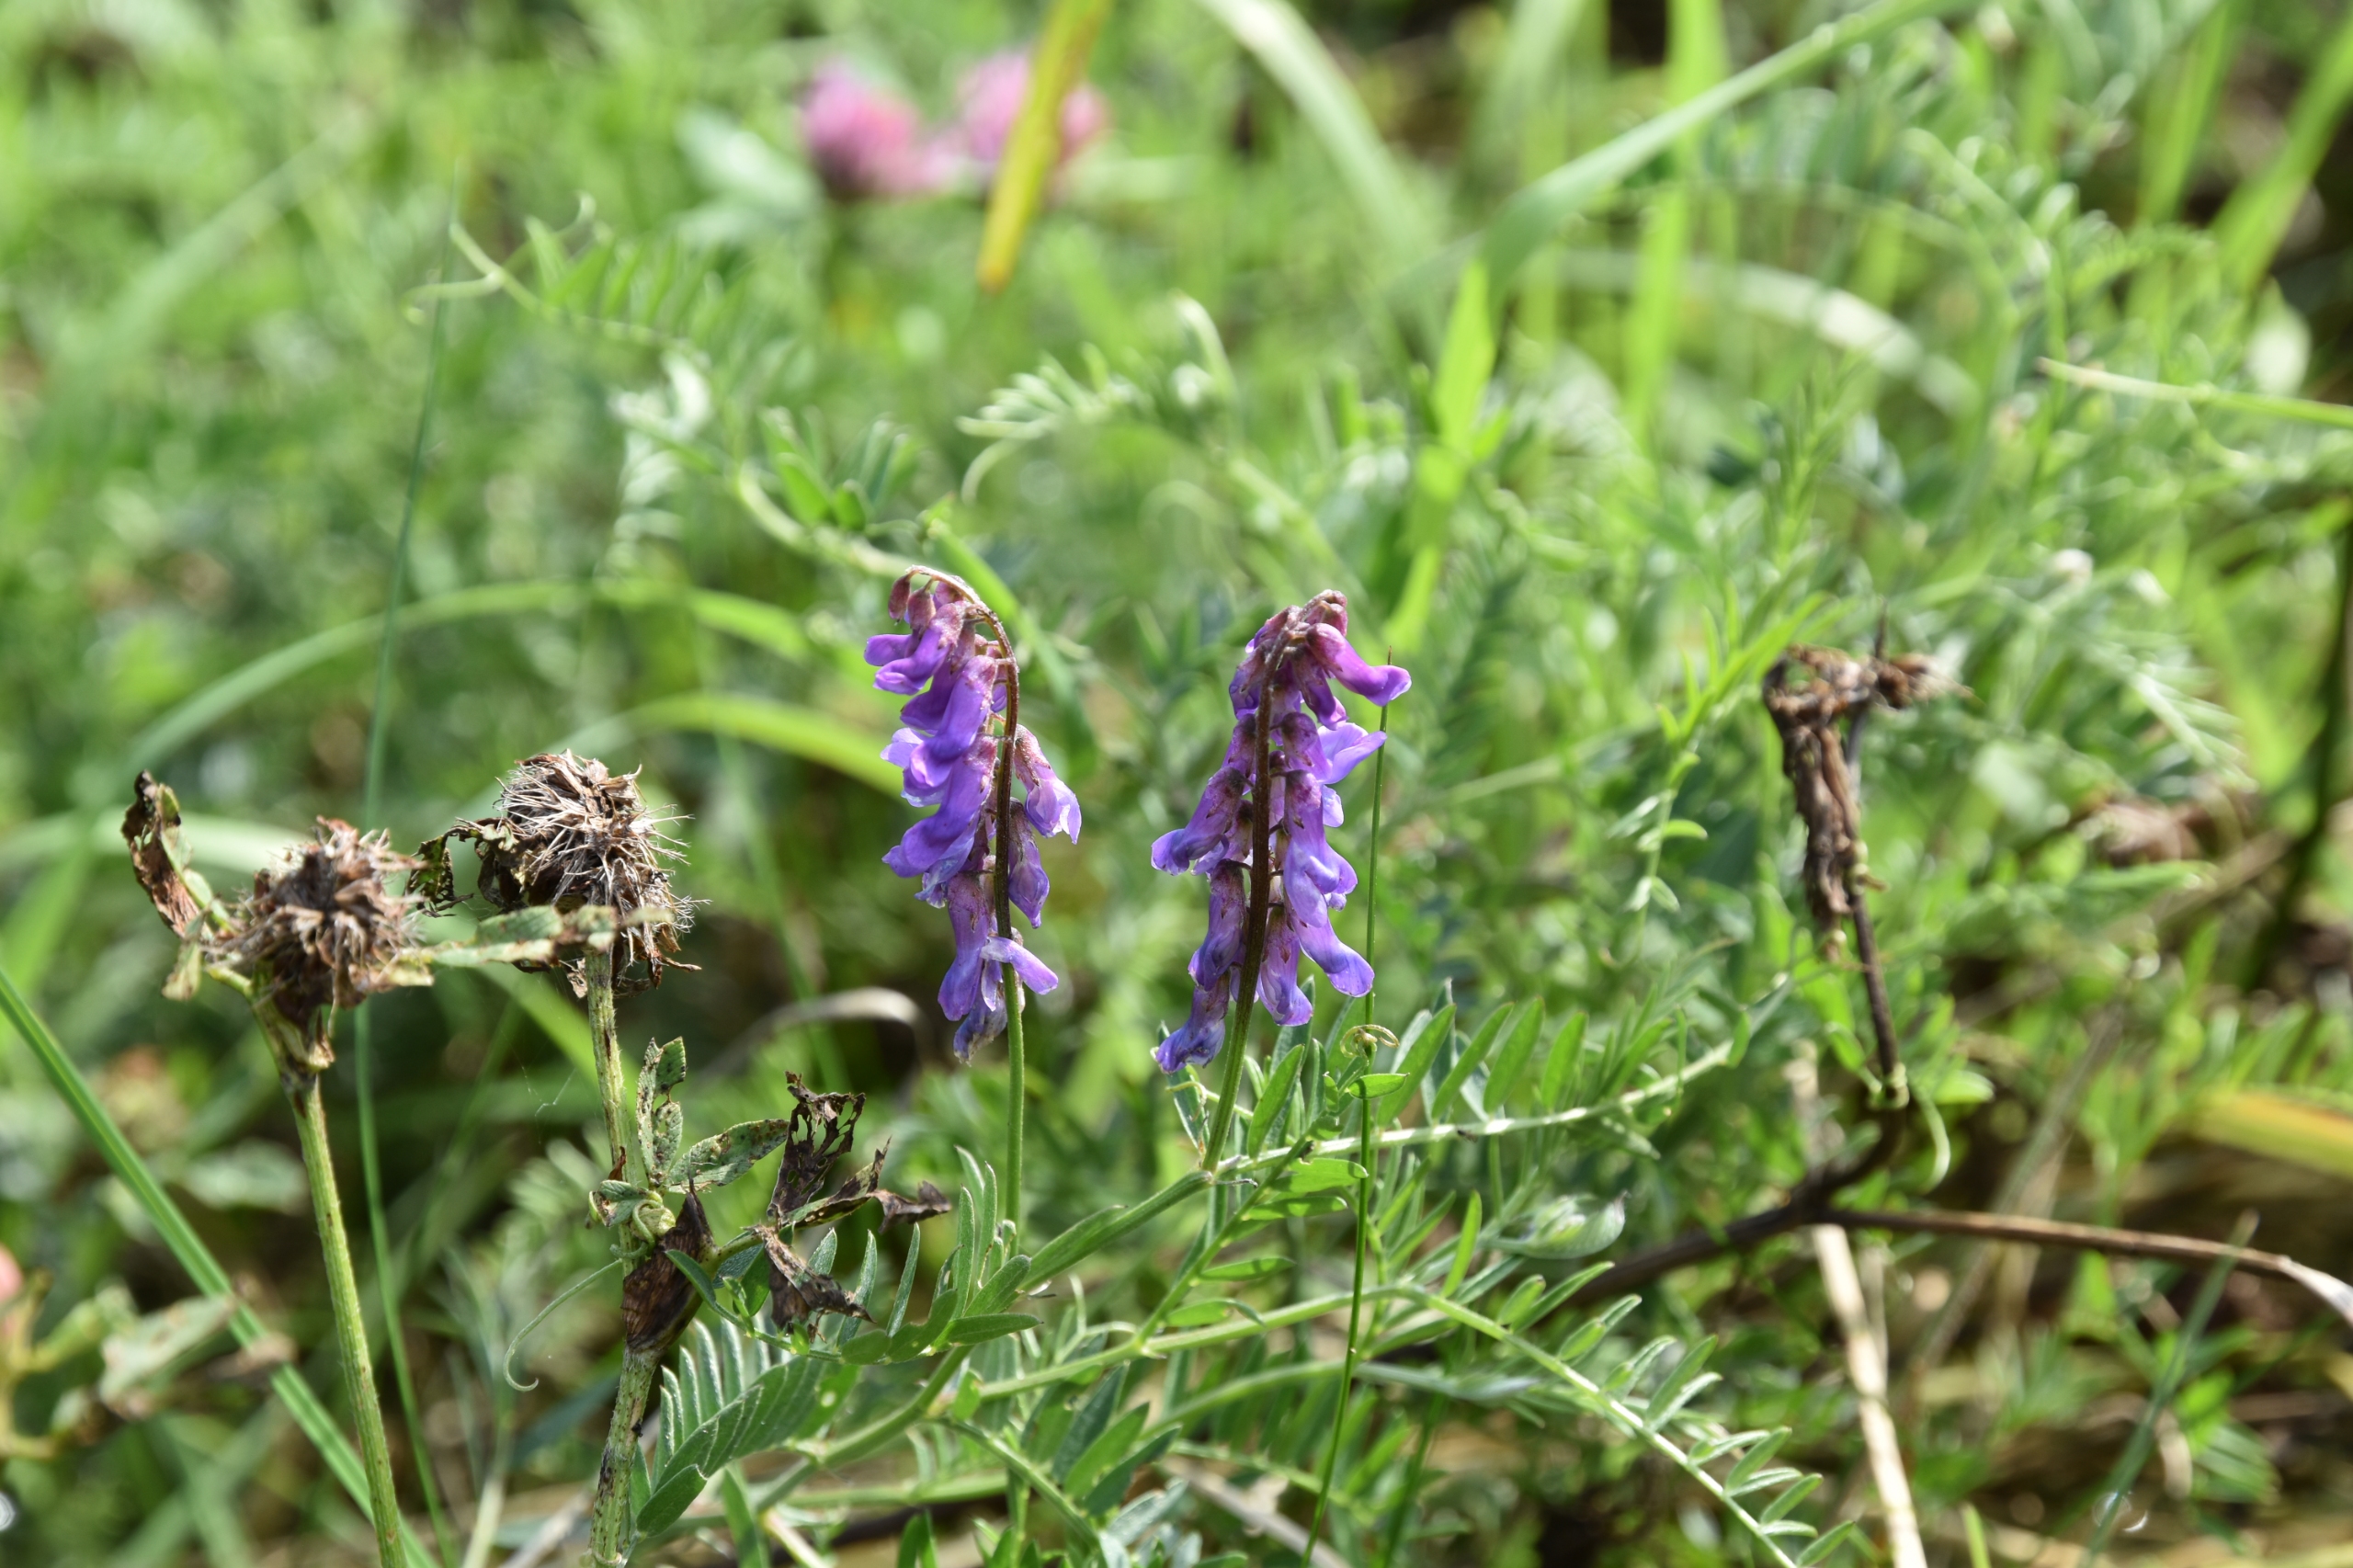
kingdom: Plantae
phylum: Tracheophyta
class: Magnoliopsida
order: Fabales
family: Fabaceae
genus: Vicia
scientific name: Vicia cracca
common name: Muse-vikke
